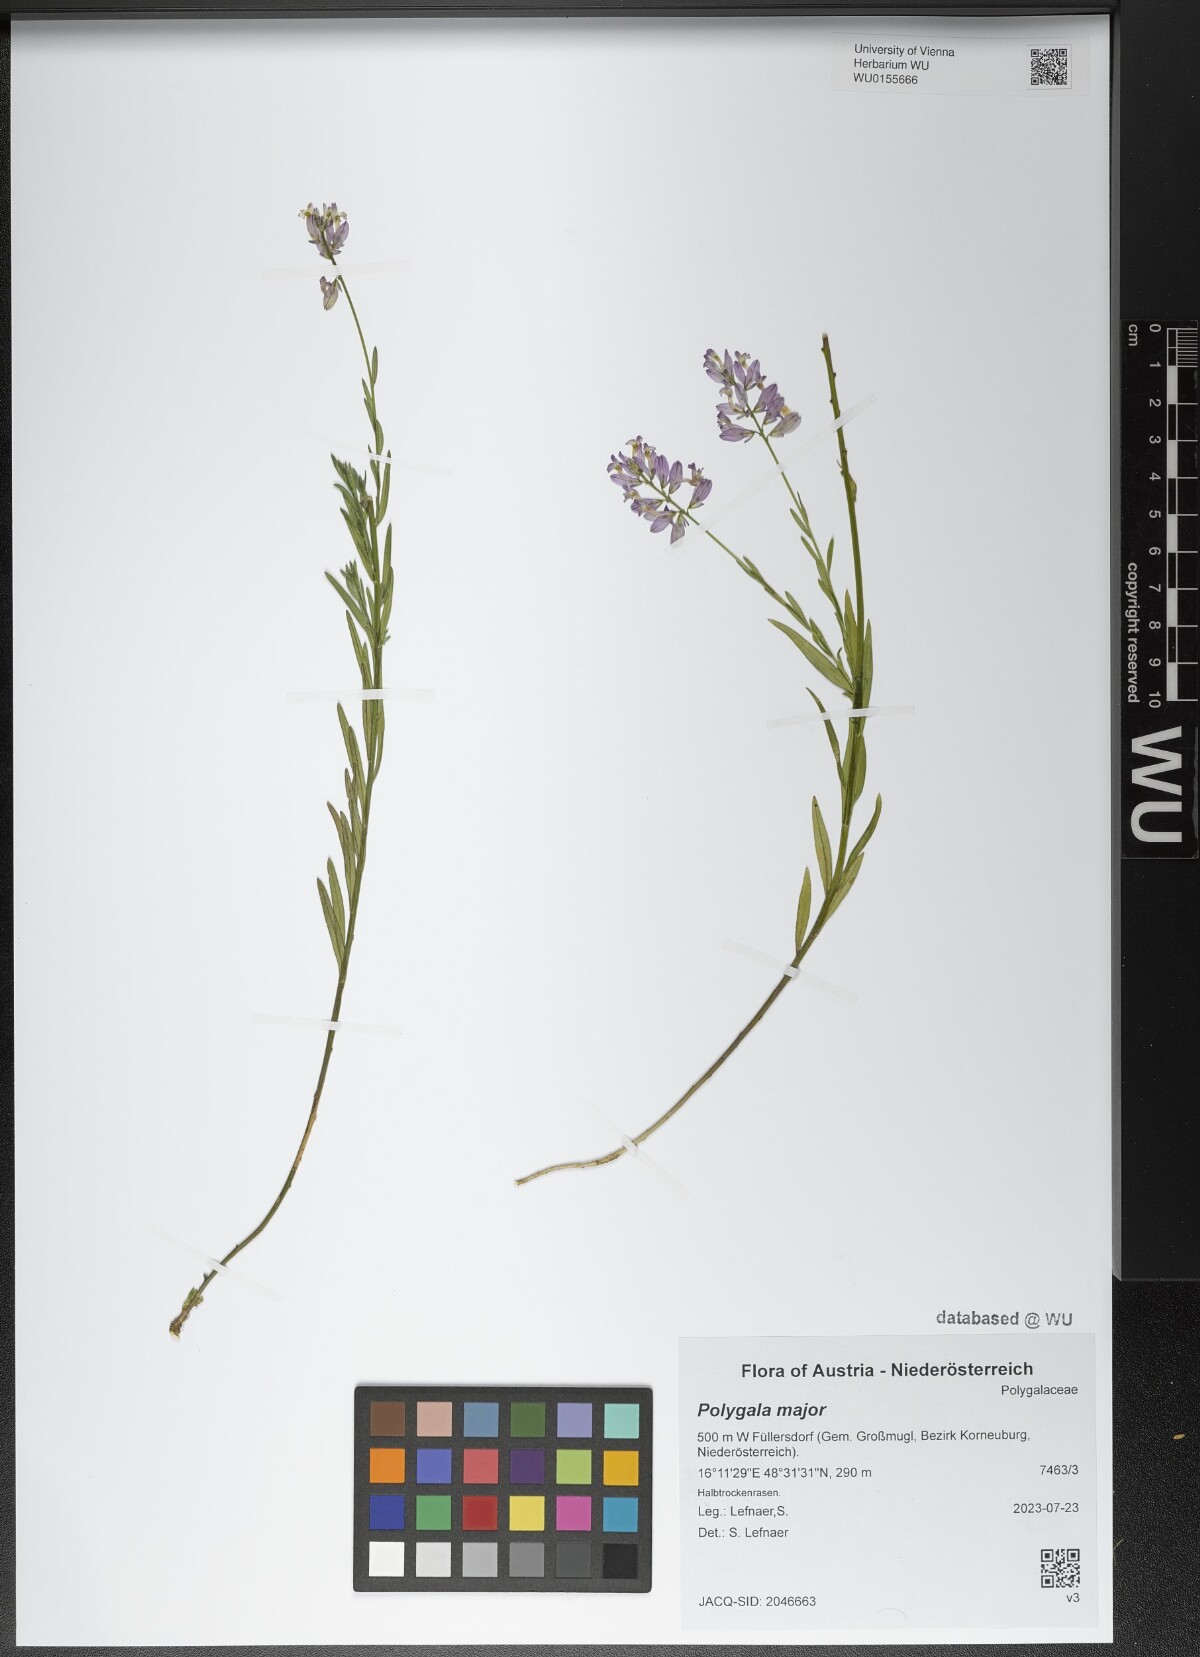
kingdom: Plantae
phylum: Tracheophyta
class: Magnoliopsida
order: Fabales
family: Polygalaceae
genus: Polygala
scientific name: Polygala major
